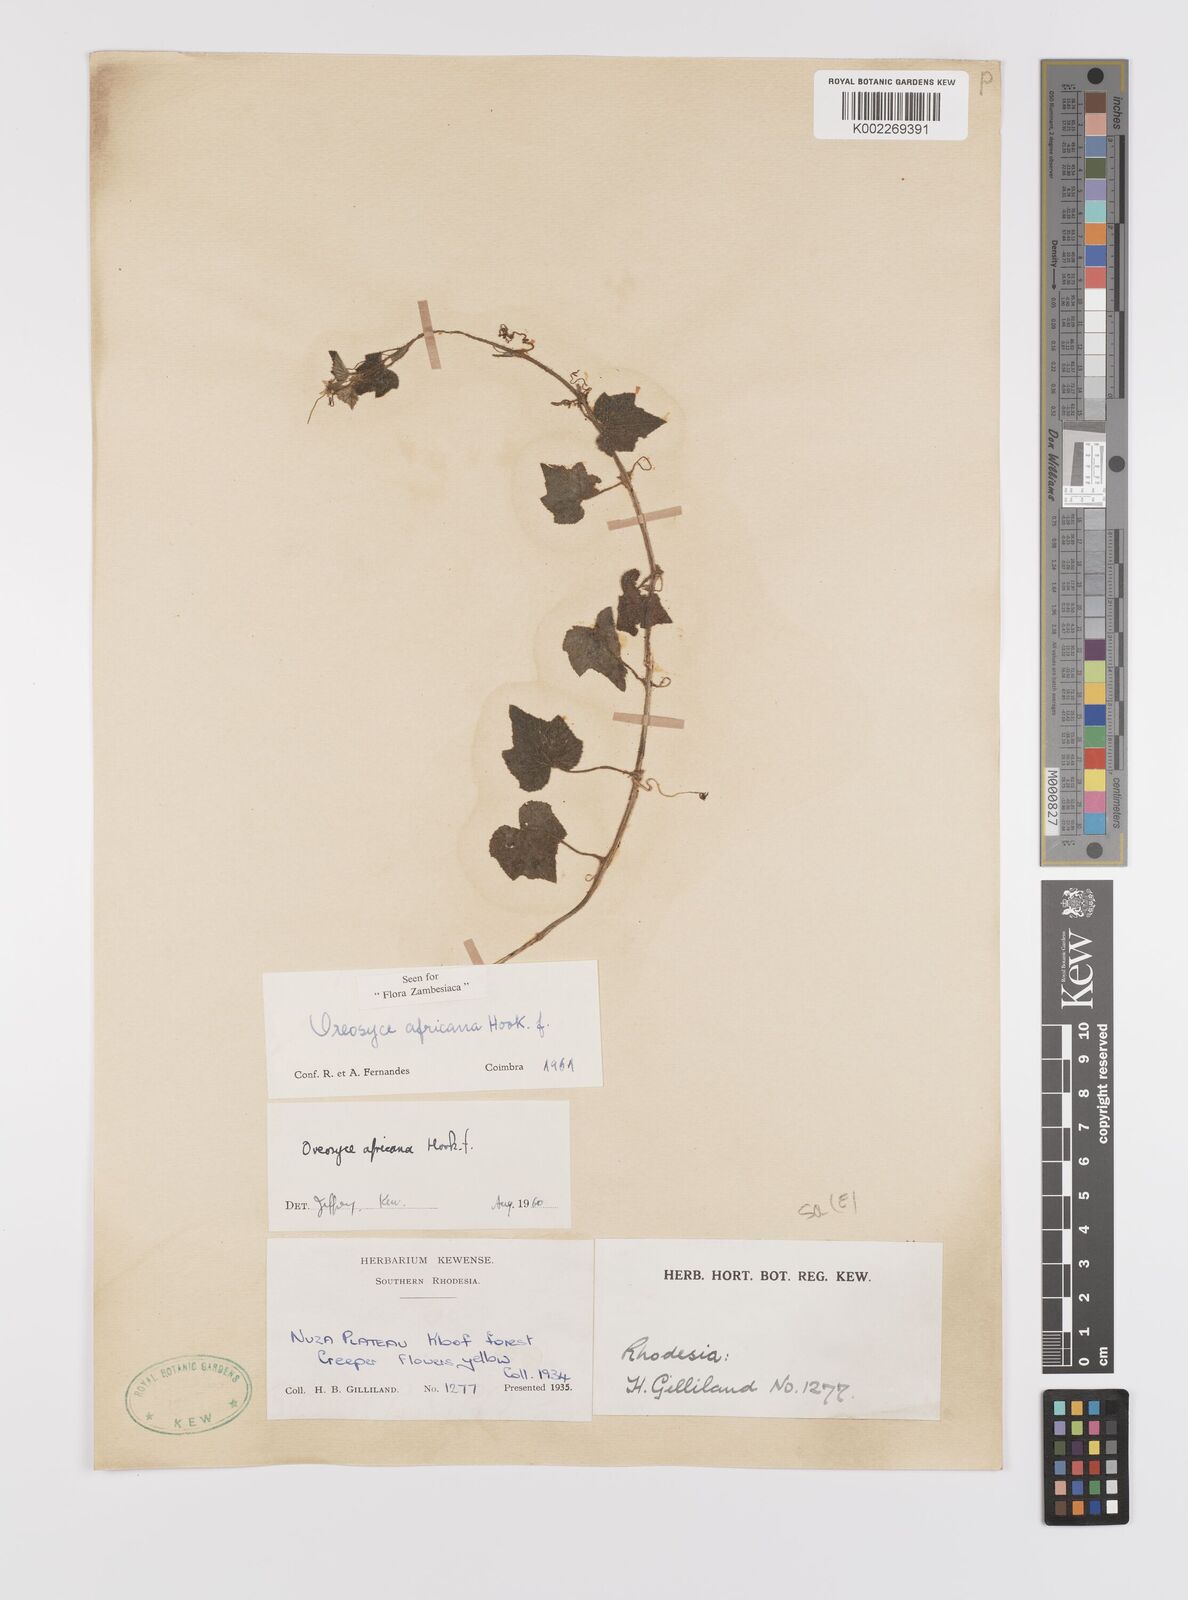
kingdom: Plantae
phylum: Tracheophyta
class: Magnoliopsida
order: Cucurbitales
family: Cucurbitaceae
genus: Cucumis
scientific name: Cucumis oreosyce
